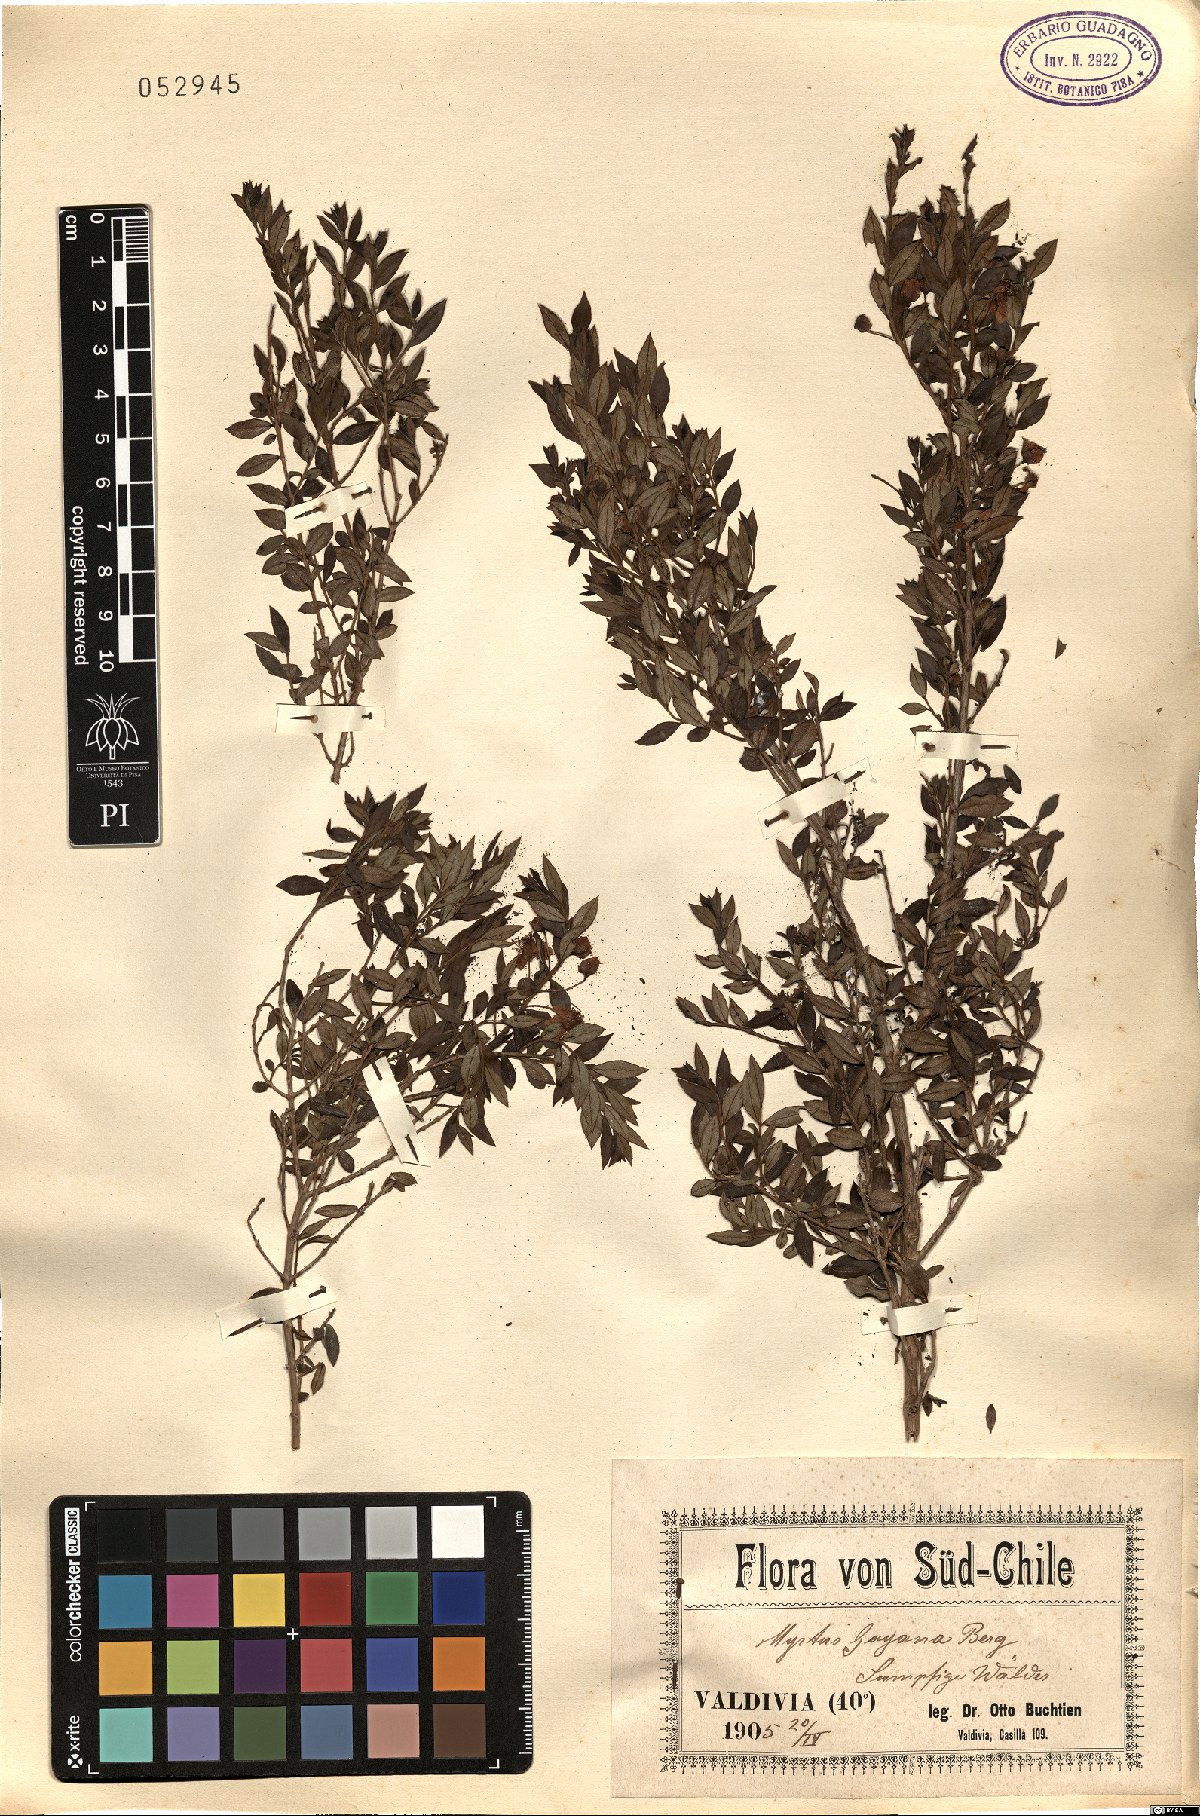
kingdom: Plantae
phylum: Tracheophyta
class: Magnoliopsida
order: Myrtales
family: Myrtaceae
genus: Luma
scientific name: Luma chequen
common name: Cheken
